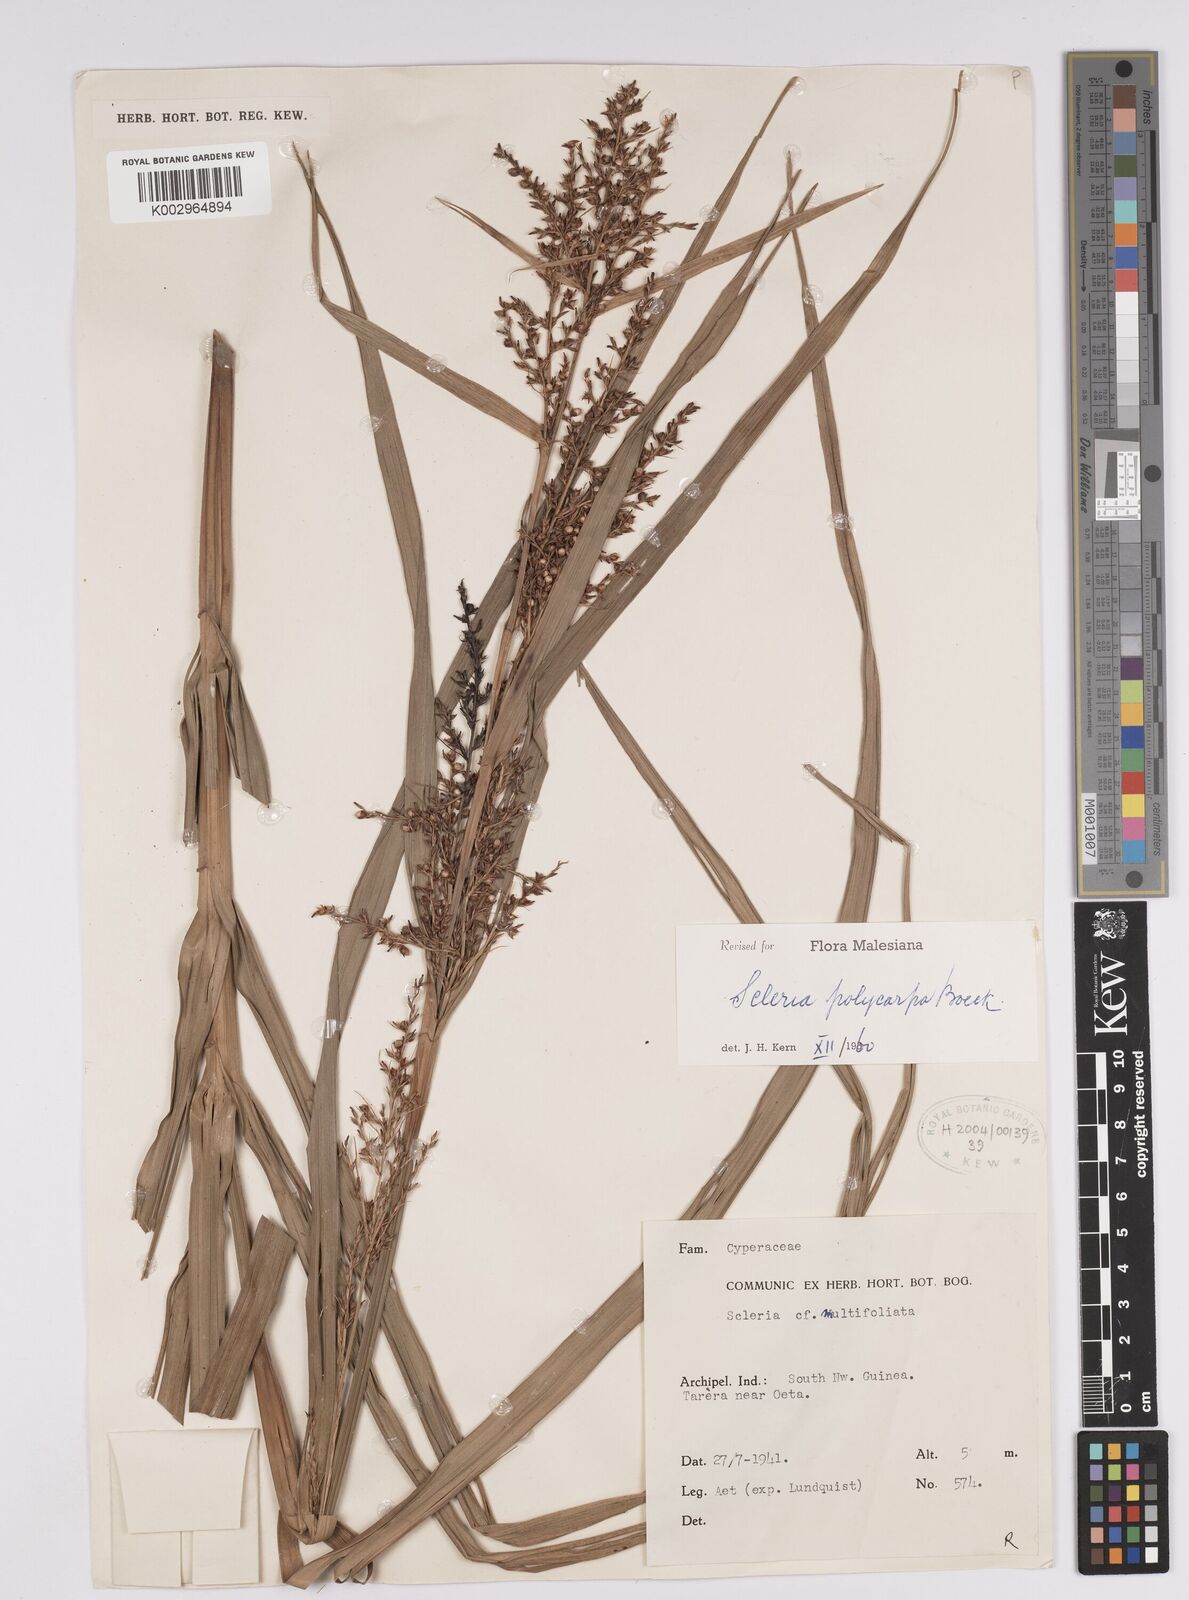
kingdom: Plantae
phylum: Tracheophyta
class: Liliopsida
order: Poales
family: Cyperaceae
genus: Scleria
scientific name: Scleria polycarpa
